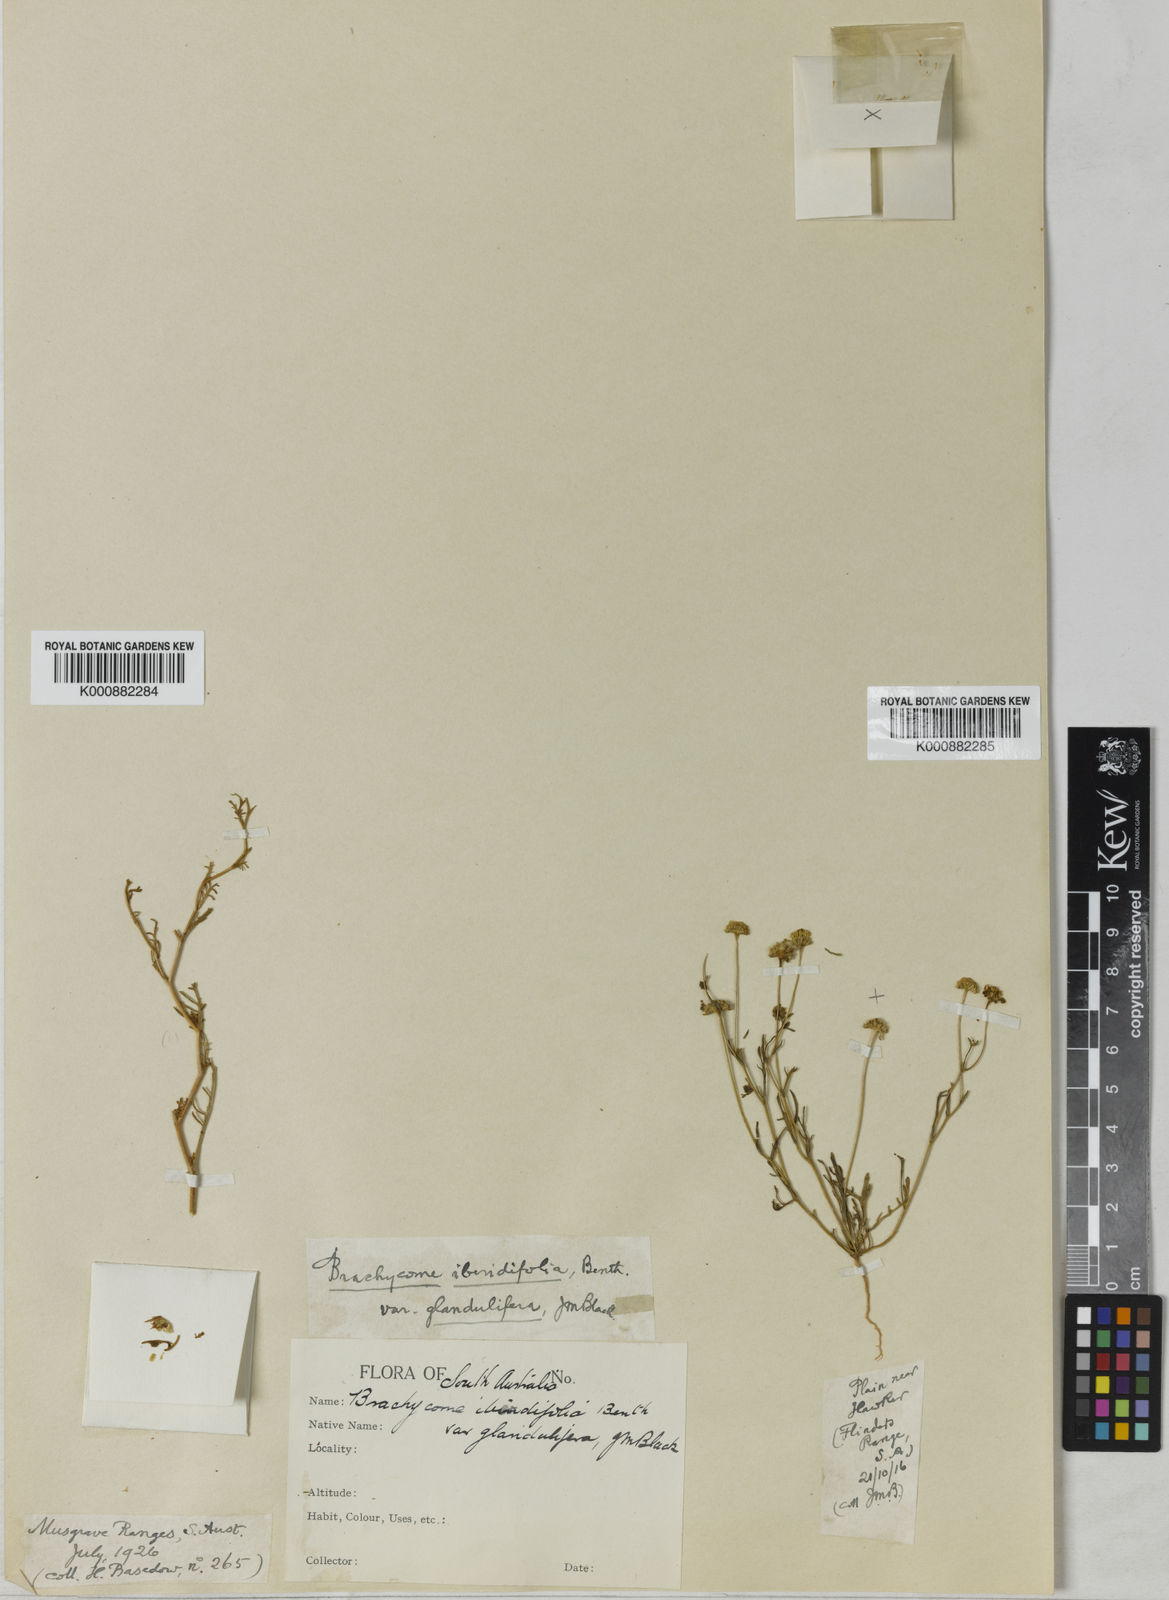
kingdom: Plantae
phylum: Tracheophyta
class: Magnoliopsida
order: Asterales
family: Asteraceae
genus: Brachyscome
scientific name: Brachyscome iberidifolia
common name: Swan river daisy
